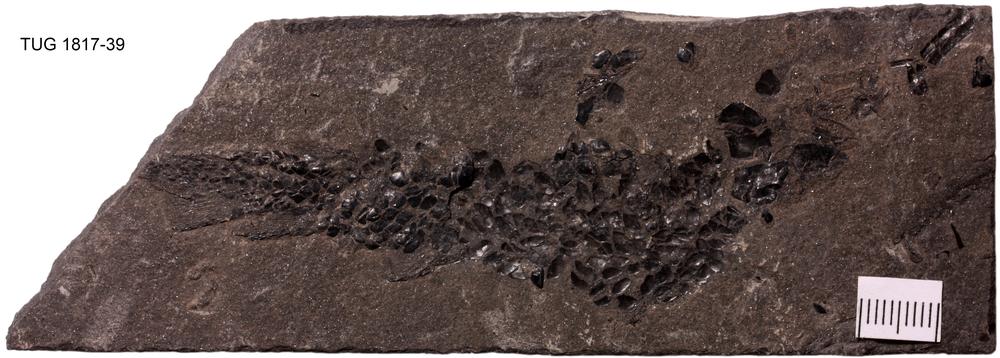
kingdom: Animalia
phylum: Chordata
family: Osteolepididae
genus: Osteolepis
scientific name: Osteolepis panderi
